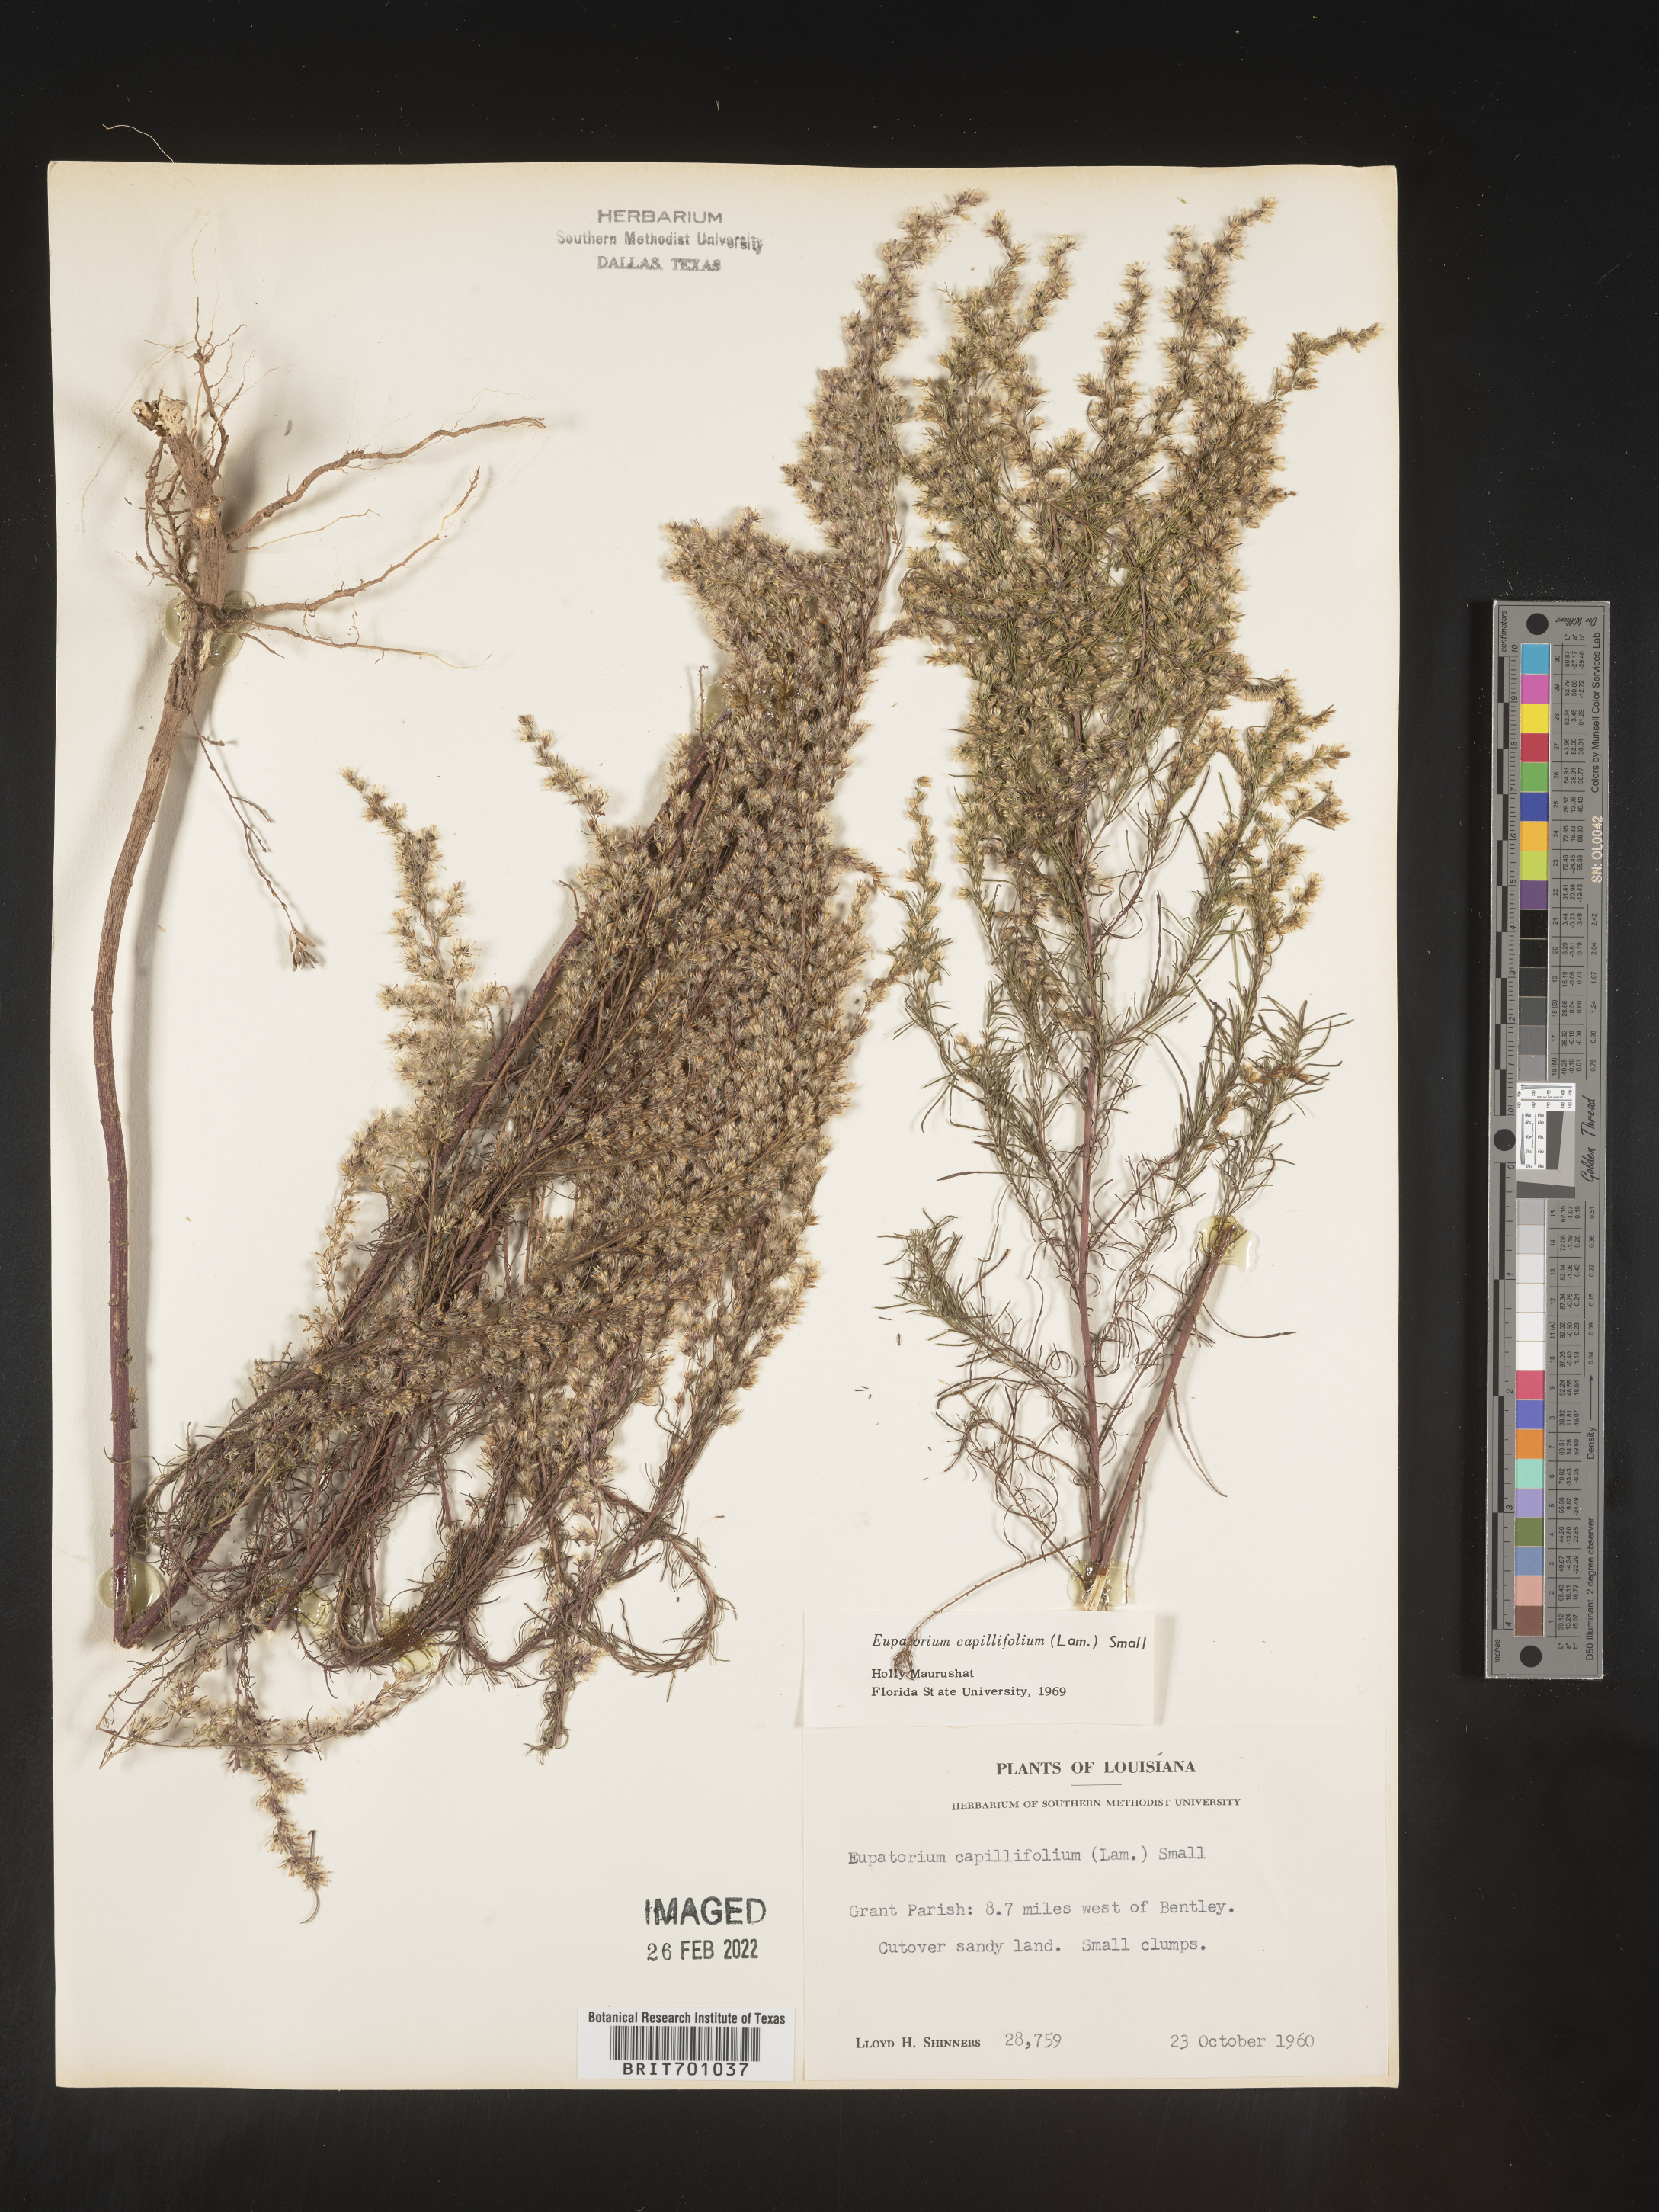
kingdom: Plantae
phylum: Tracheophyta
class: Magnoliopsida
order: Asterales
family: Asteraceae
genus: Eupatorium
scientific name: Eupatorium capillifolium
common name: Dog-fennel
